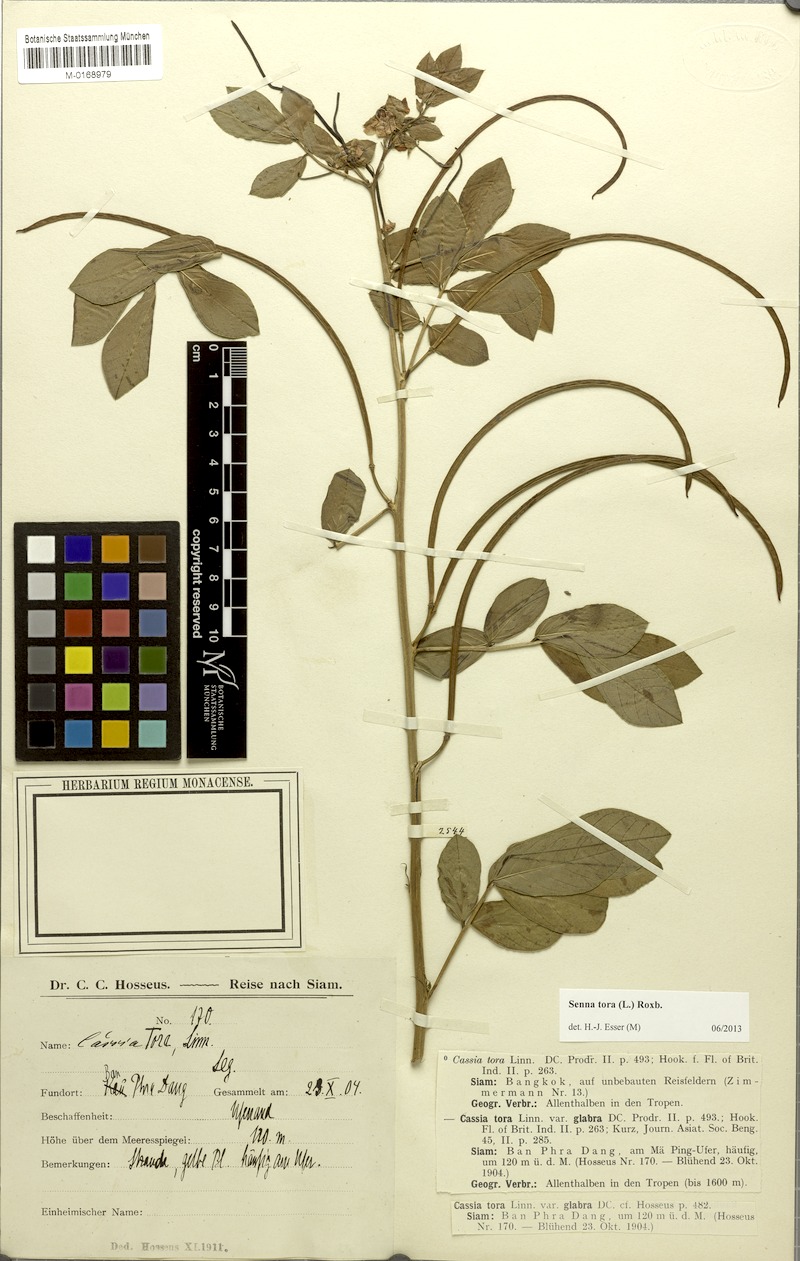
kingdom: Plantae
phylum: Tracheophyta
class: Magnoliopsida
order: Fabales
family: Fabaceae
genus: Senna
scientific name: Senna tora
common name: Sickle senna
